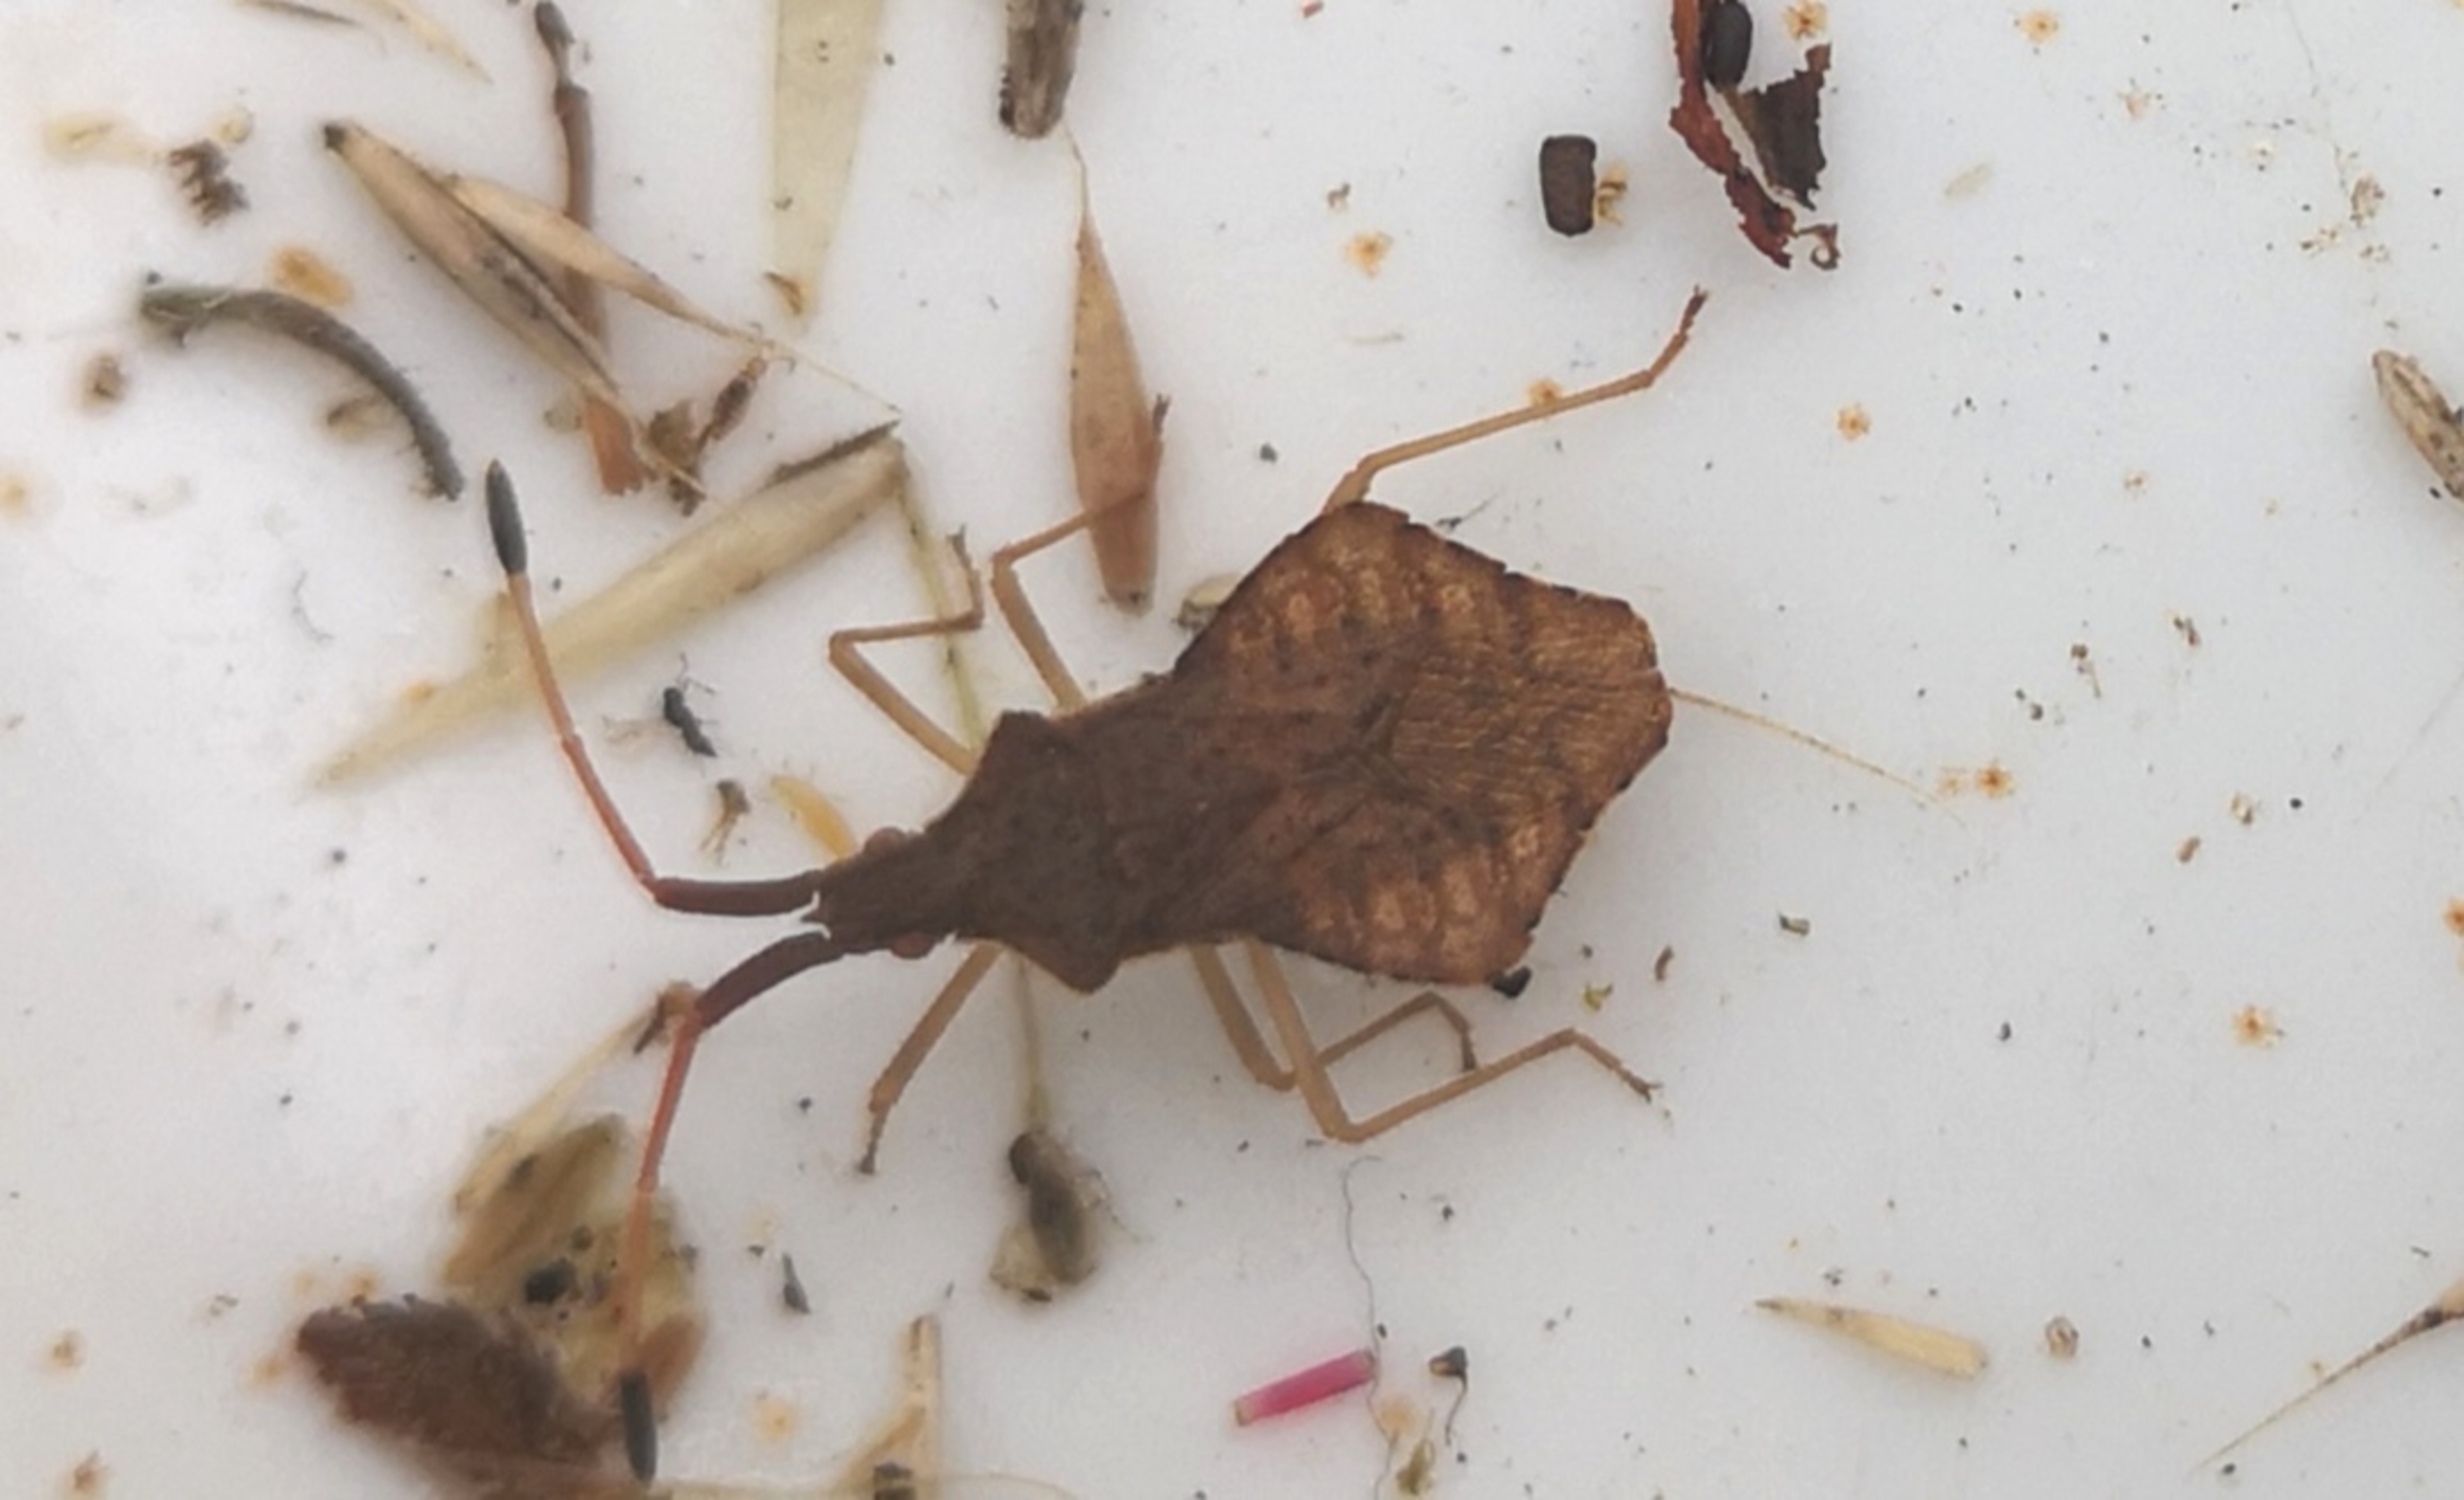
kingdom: Animalia
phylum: Arthropoda
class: Insecta
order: Hemiptera
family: Coreidae
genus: Syromastus
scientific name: Syromastus rhombeus
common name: Rudetæge
